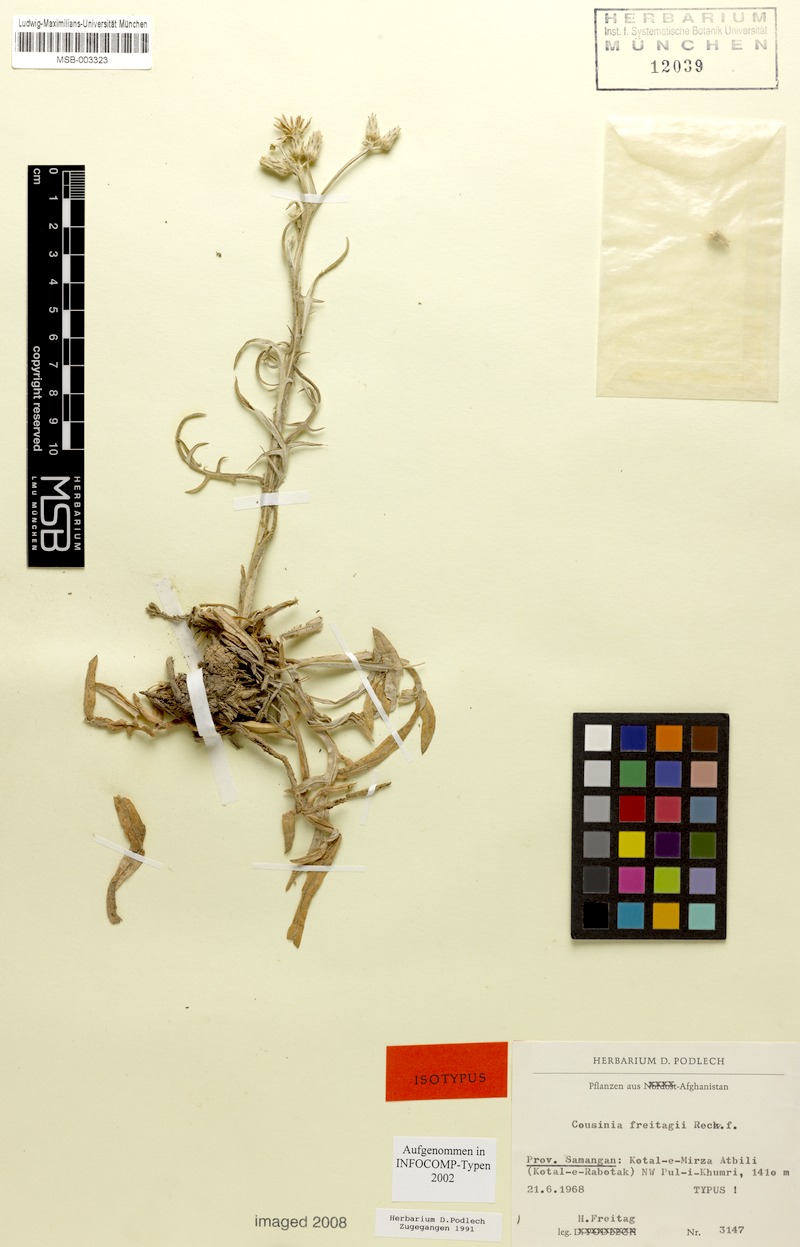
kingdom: Plantae
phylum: Tracheophyta
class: Magnoliopsida
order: Asterales
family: Asteraceae
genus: Cousinia
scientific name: Cousinia freitagii
